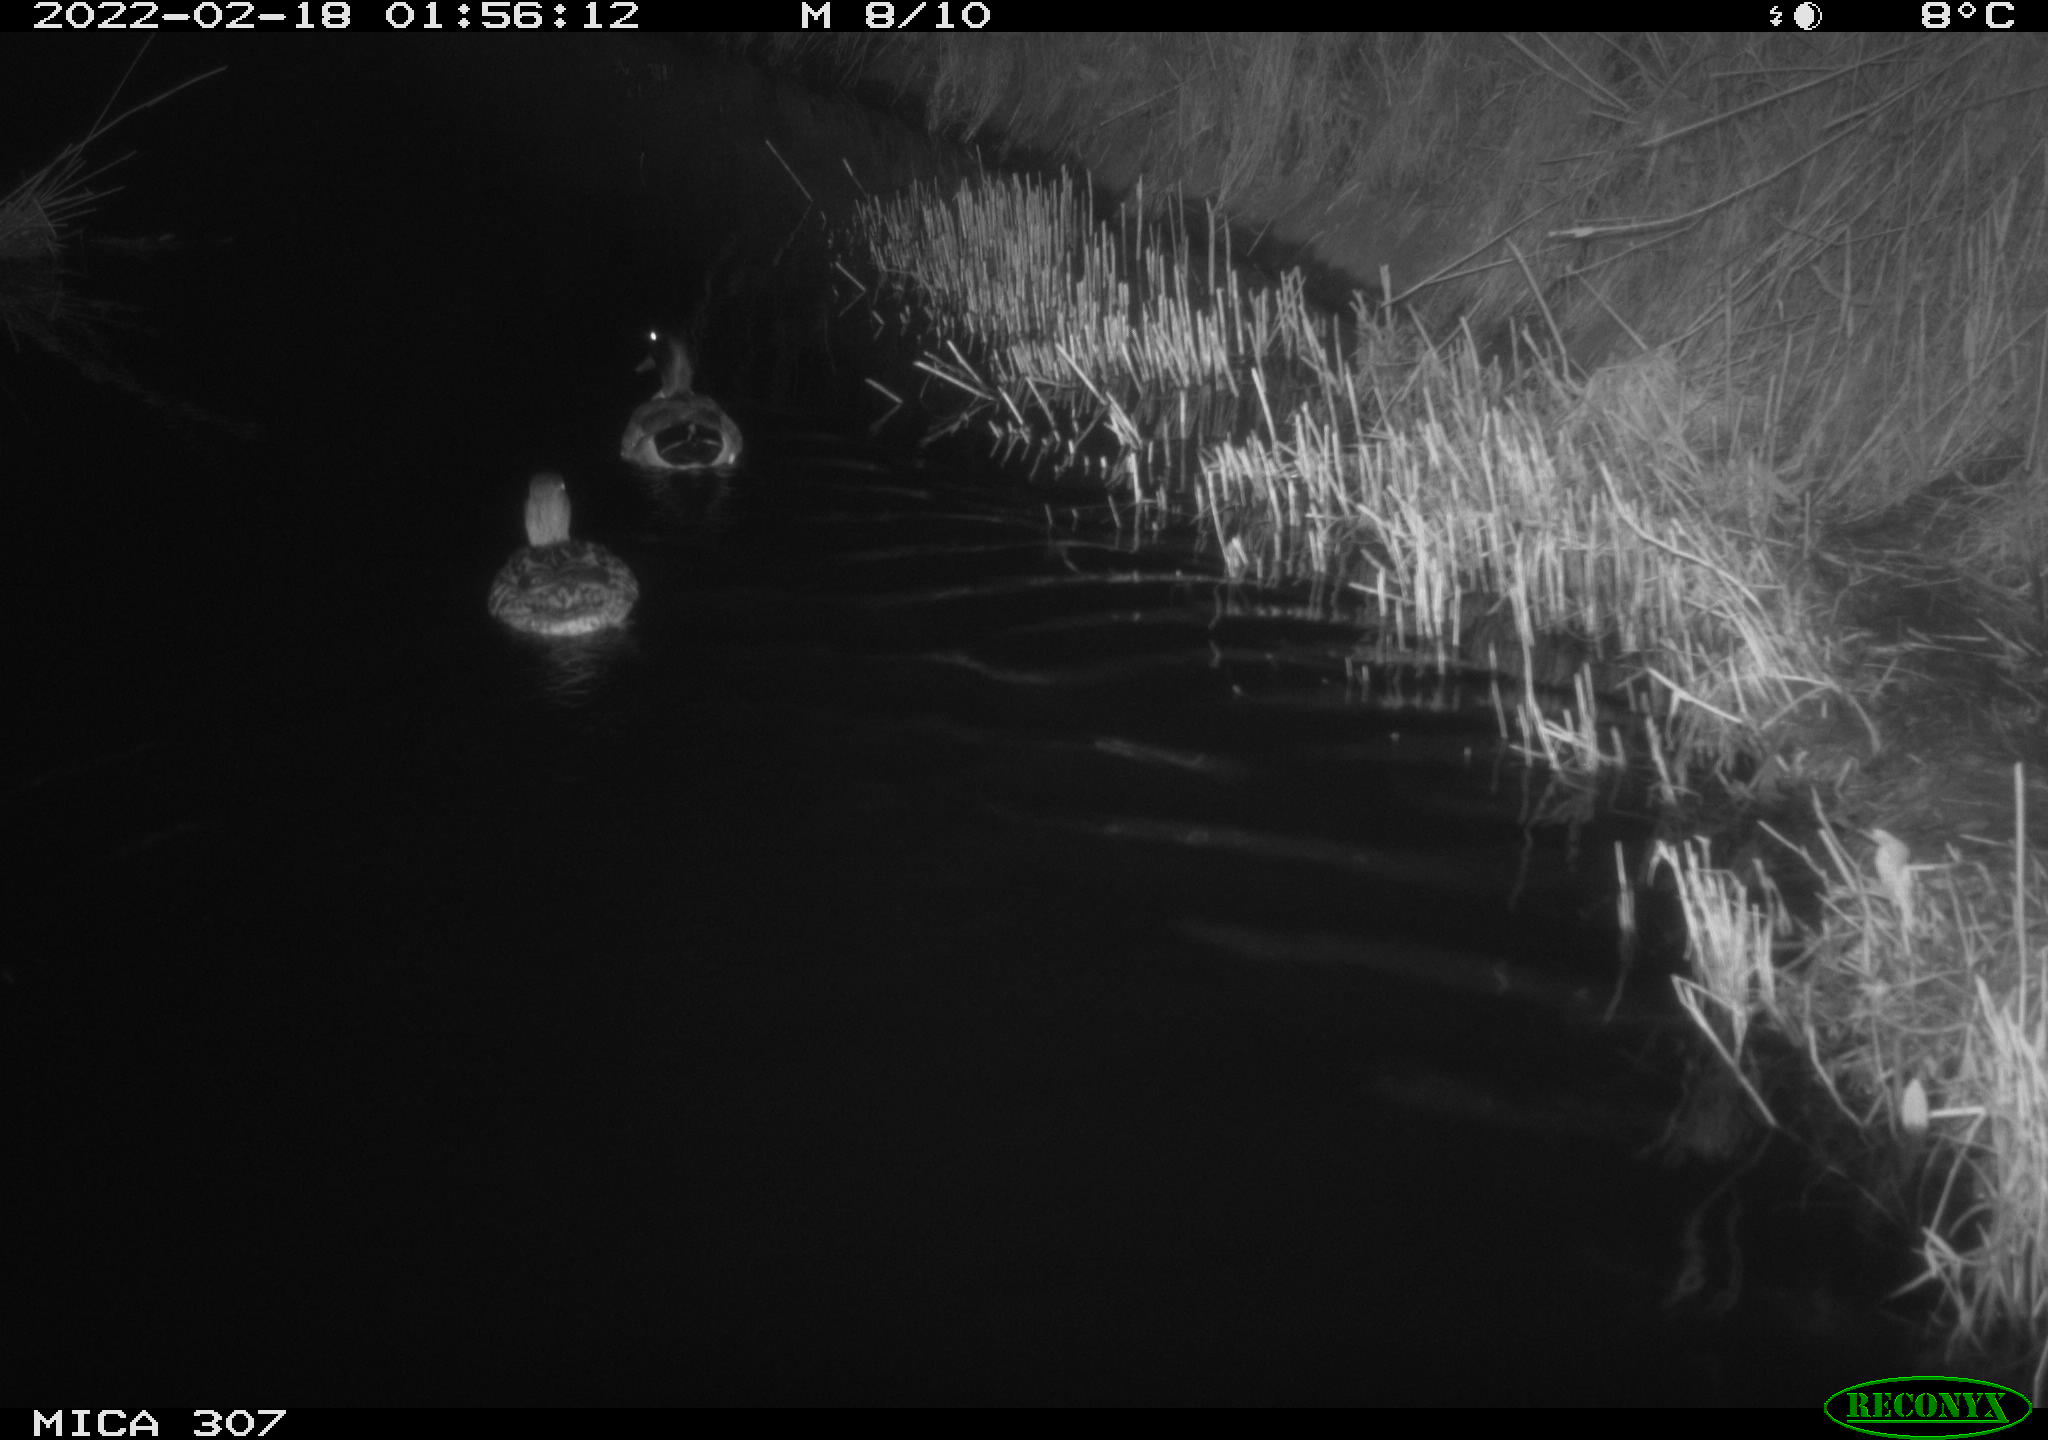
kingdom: Animalia
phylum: Chordata
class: Aves
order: Anseriformes
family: Anatidae
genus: Anas
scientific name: Anas platyrhynchos
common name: Mallard
